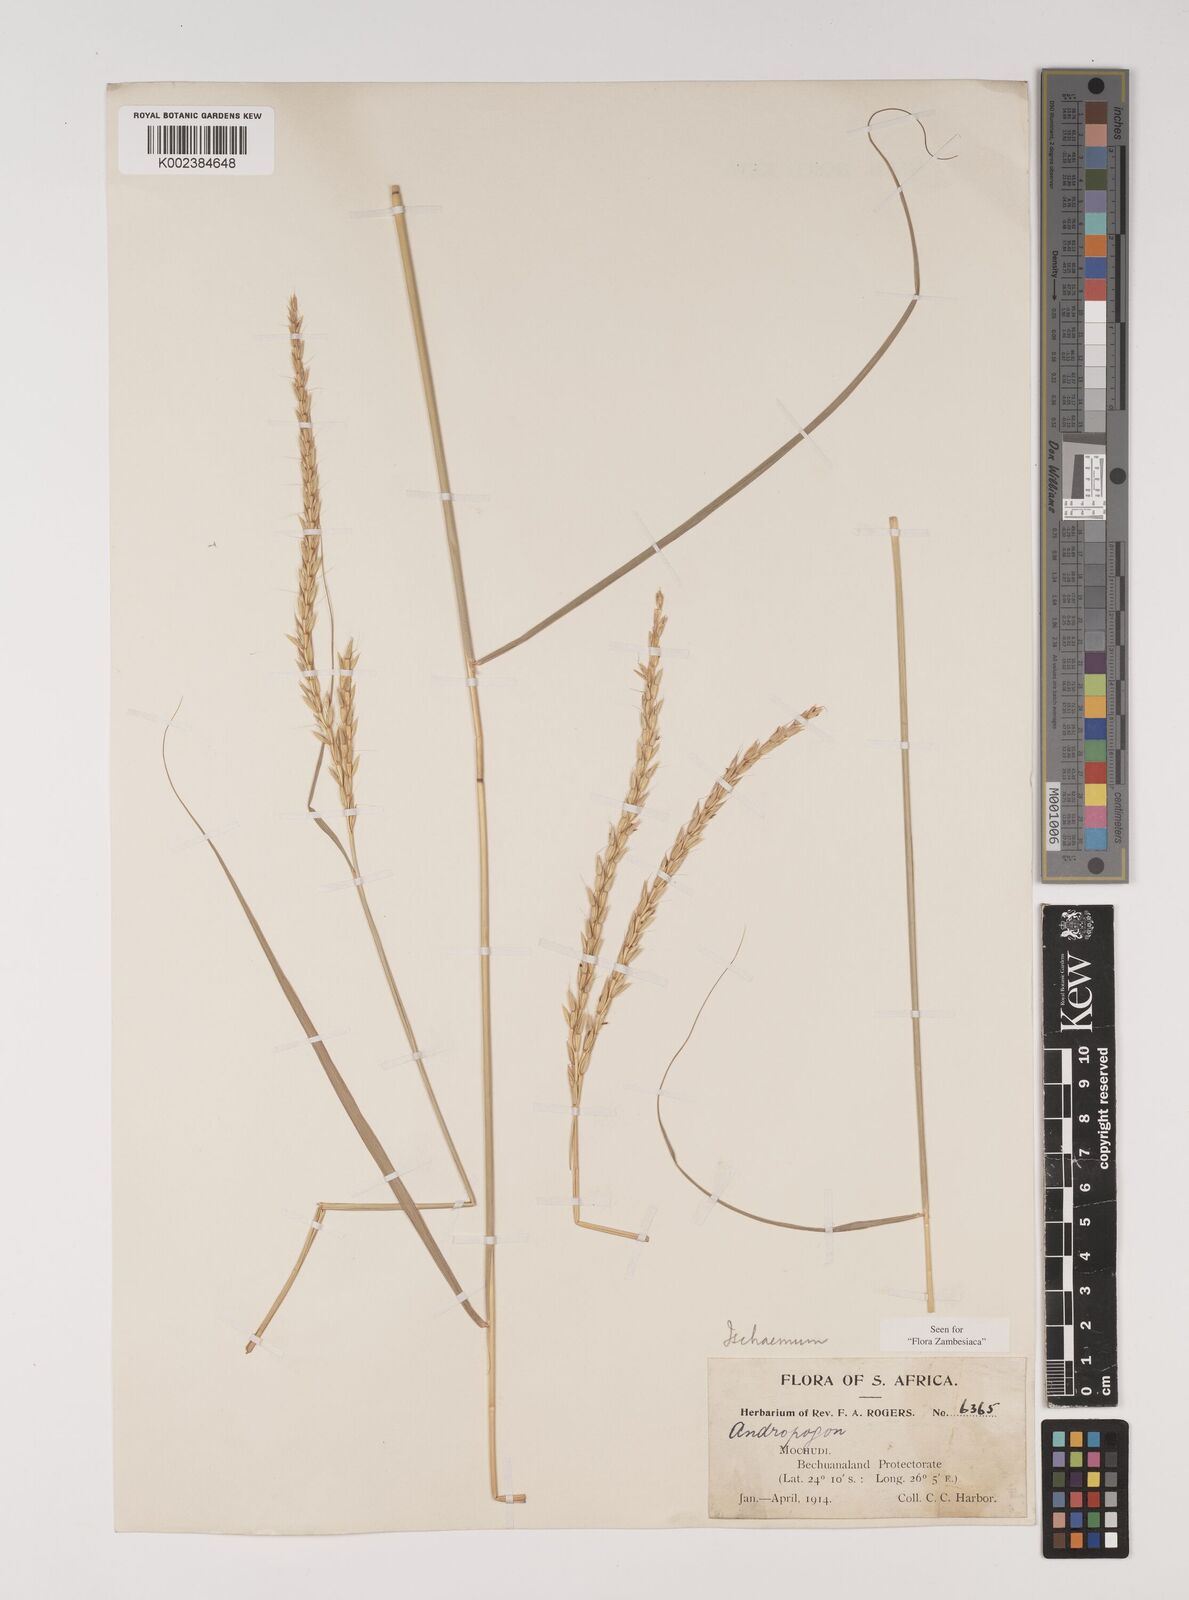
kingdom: Plantae
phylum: Tracheophyta
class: Liliopsida
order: Poales
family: Poaceae
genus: Ischaemum
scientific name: Ischaemum afrum
